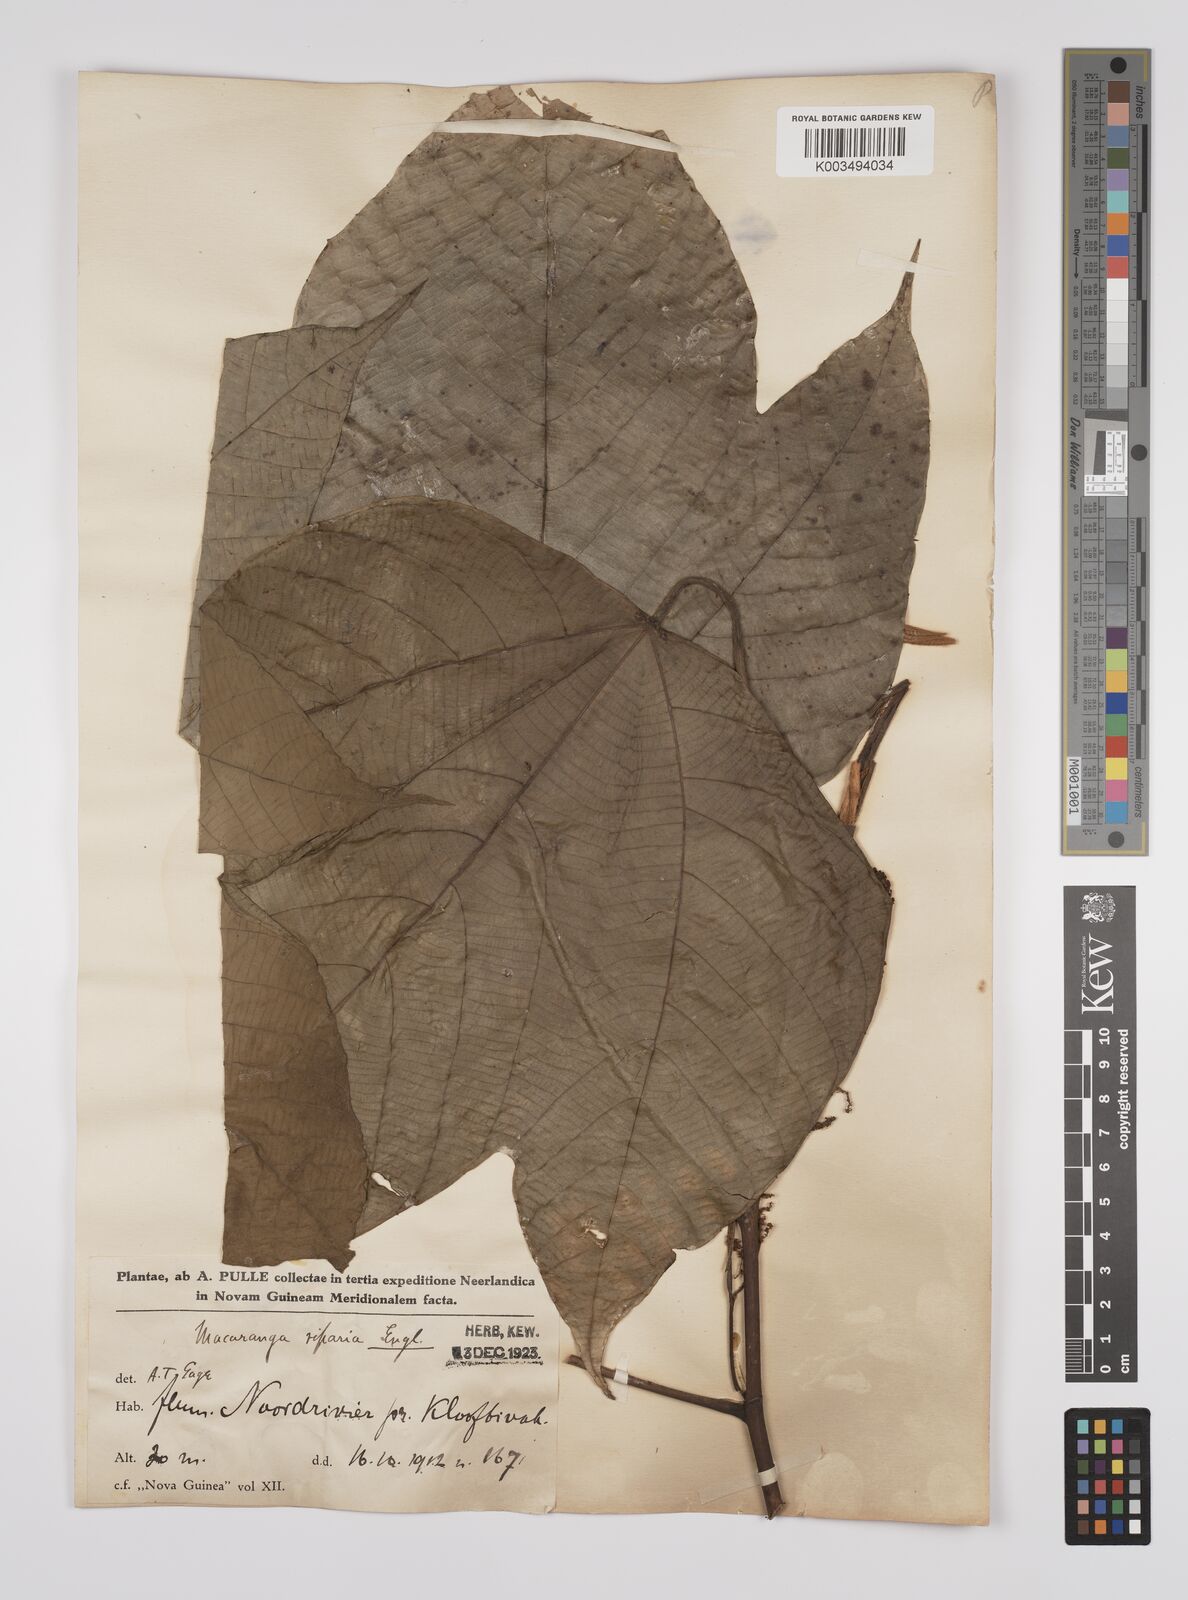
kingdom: Plantae
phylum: Tracheophyta
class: Magnoliopsida
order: Malpighiales
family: Euphorbiaceae
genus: Macaranga
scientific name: Macaranga aleuritoides
